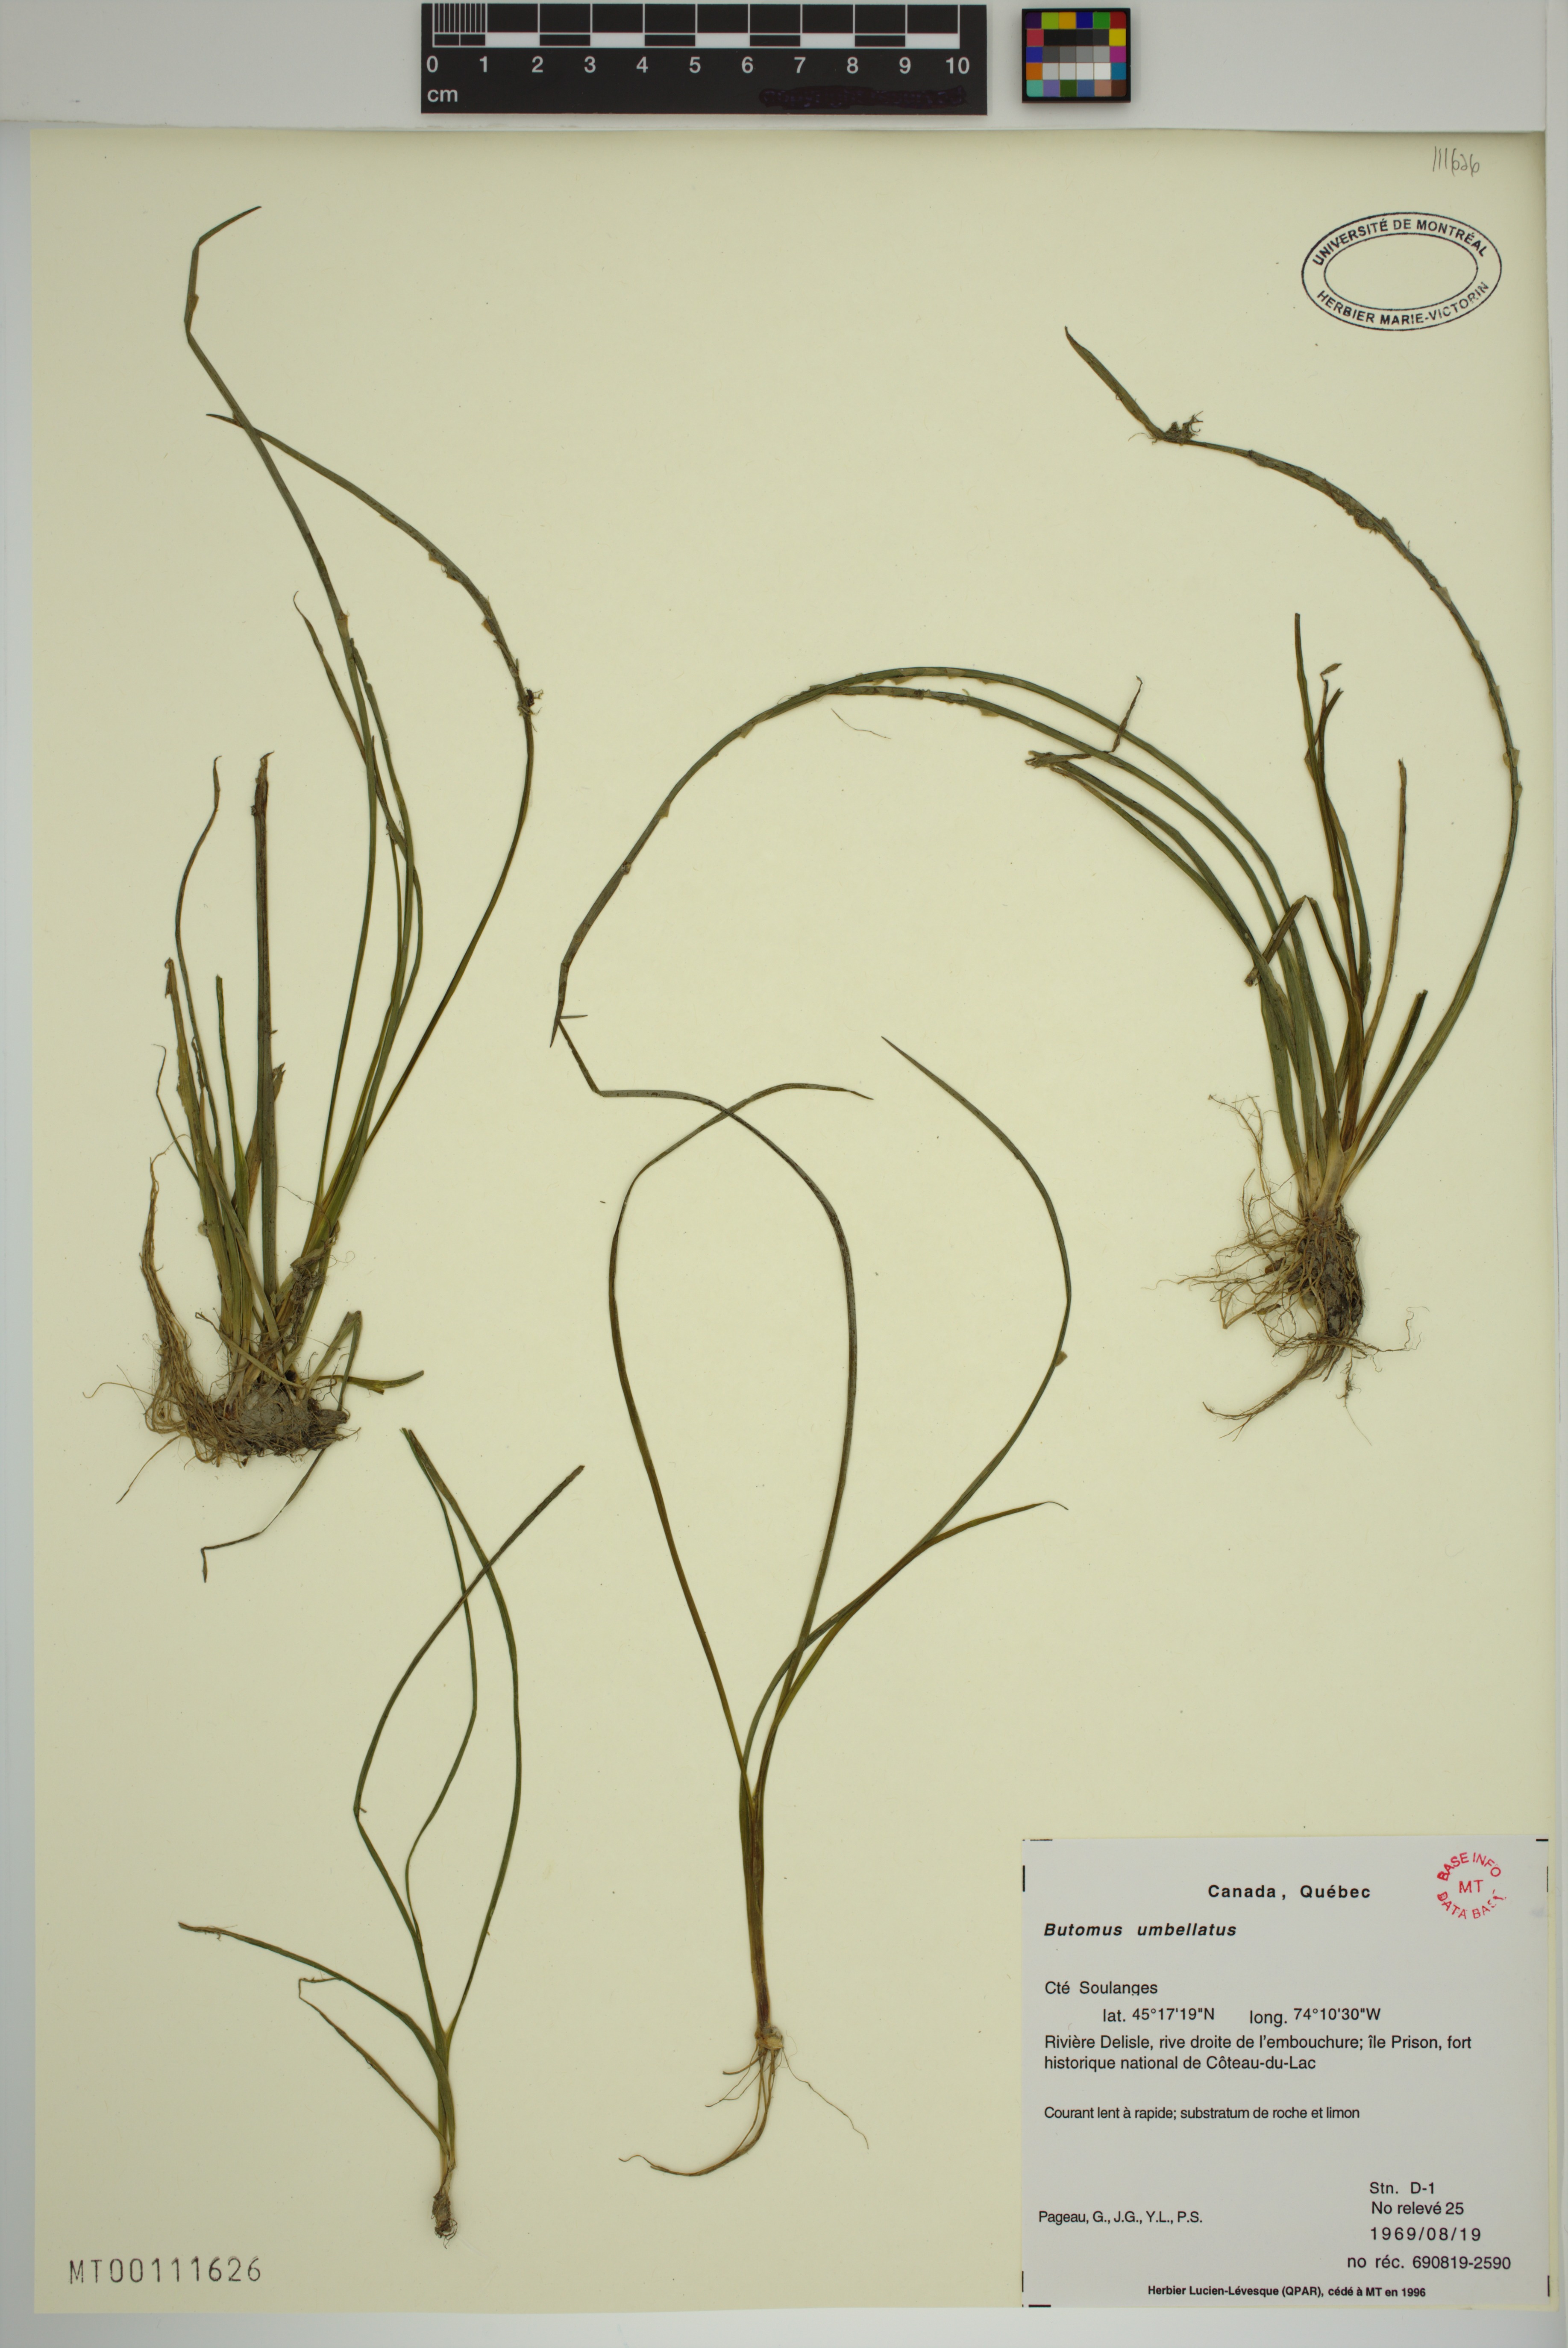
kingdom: Plantae
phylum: Tracheophyta
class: Liliopsida
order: Alismatales
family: Butomaceae
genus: Butomus
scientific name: Butomus umbellatus
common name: Flowering-rush
